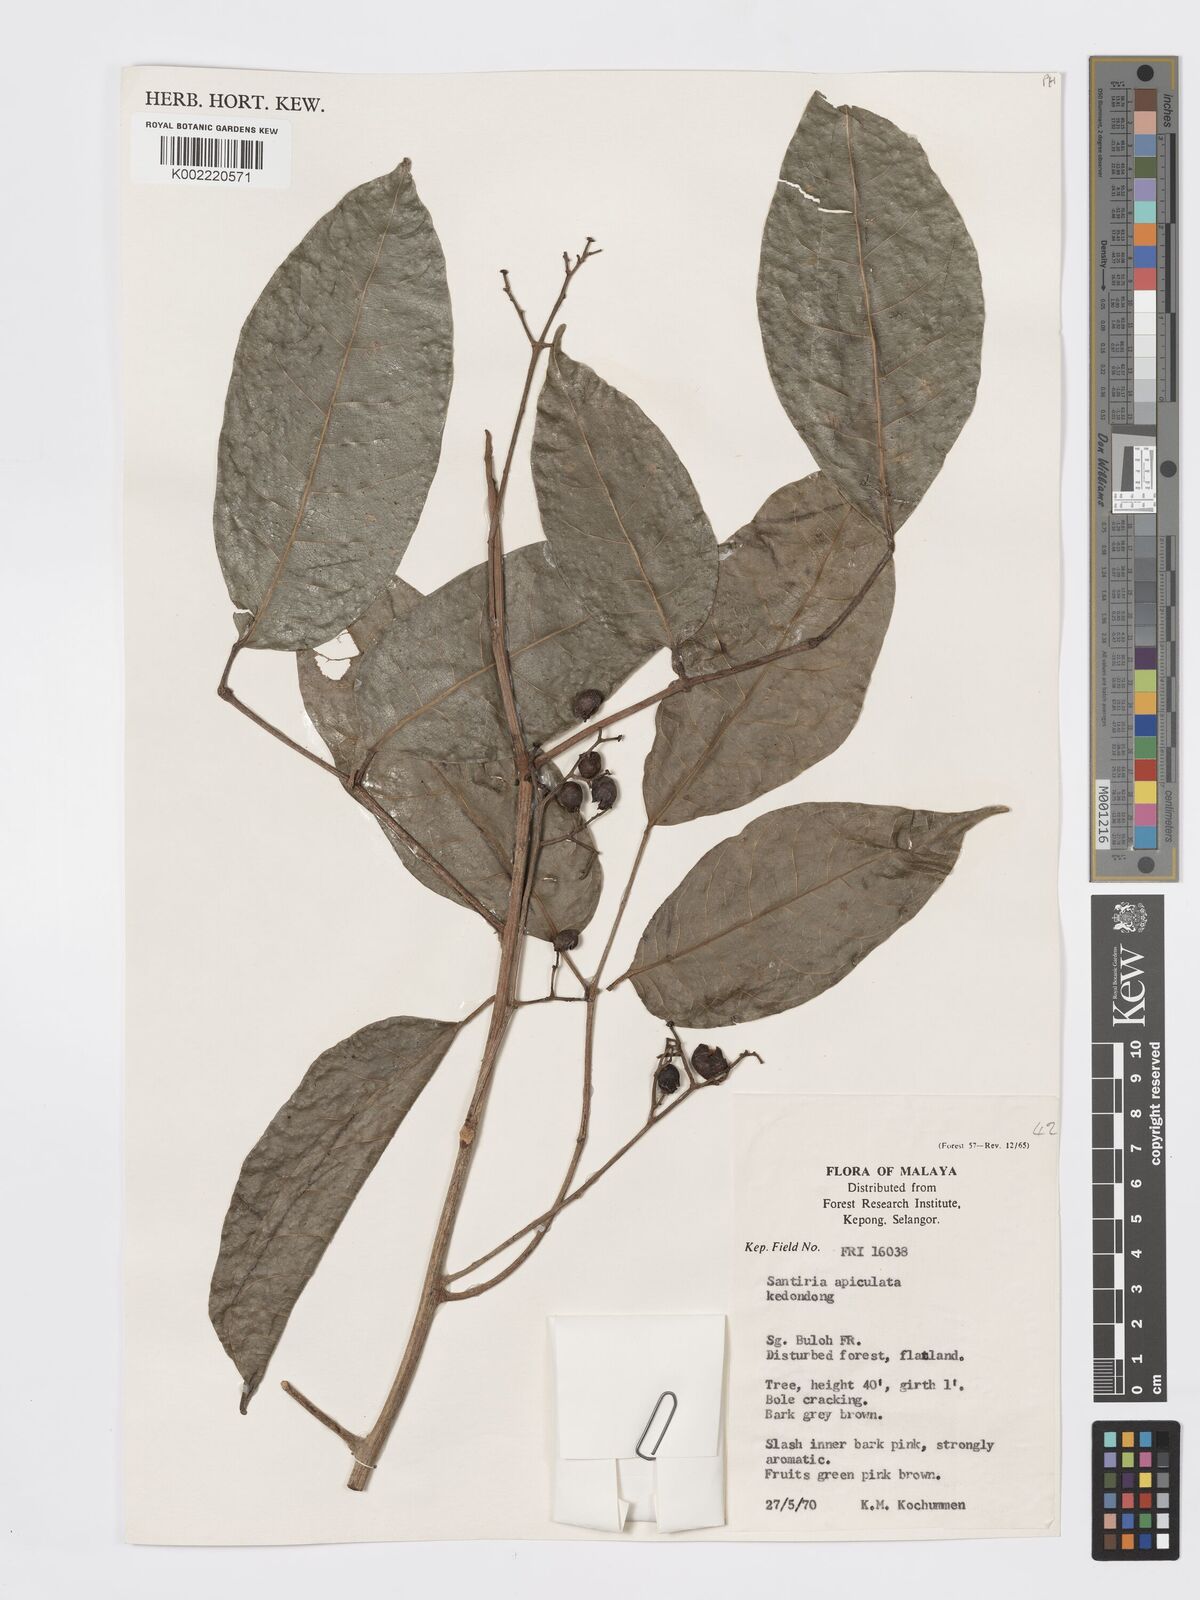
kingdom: Plantae
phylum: Tracheophyta
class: Magnoliopsida
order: Sapindales
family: Burseraceae
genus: Santiria
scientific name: Santiria apiculata
